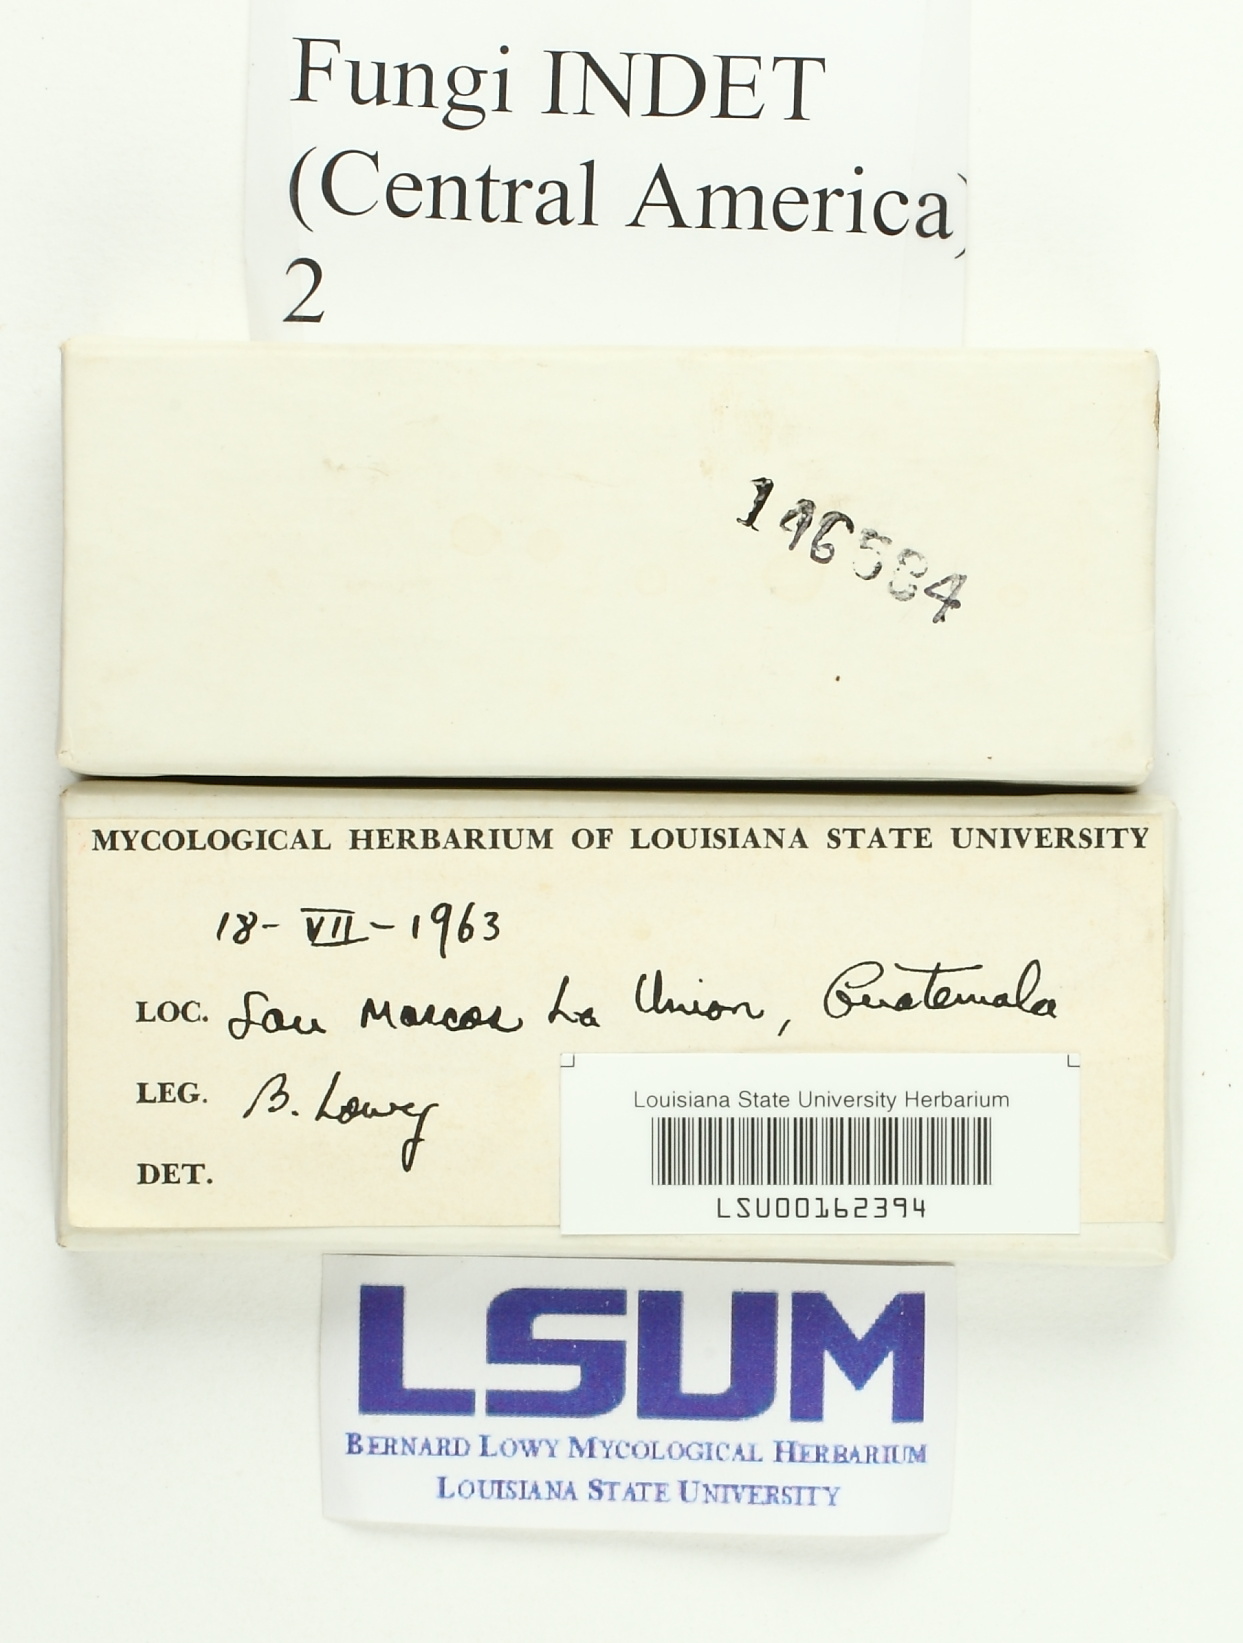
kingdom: Fungi
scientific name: Fungi
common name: Fungi
